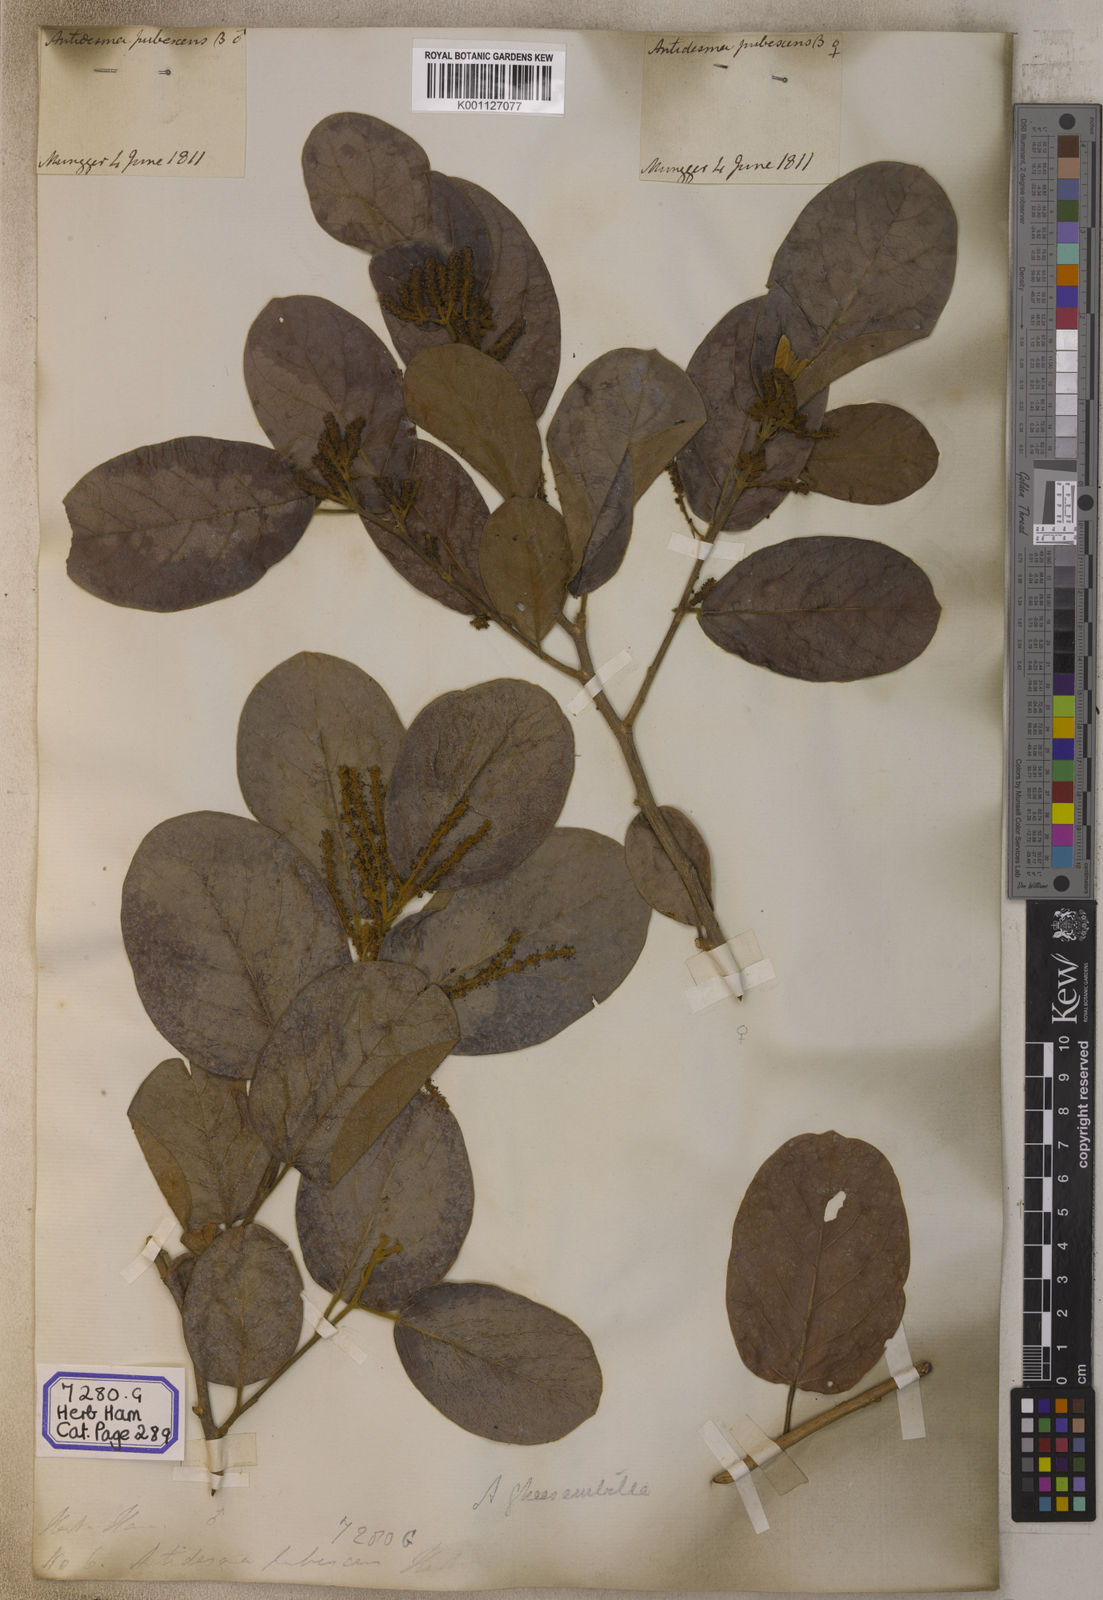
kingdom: Plantae
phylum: Tracheophyta
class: Magnoliopsida
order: Malpighiales
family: Phyllanthaceae
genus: Antidesma
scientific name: Antidesma
